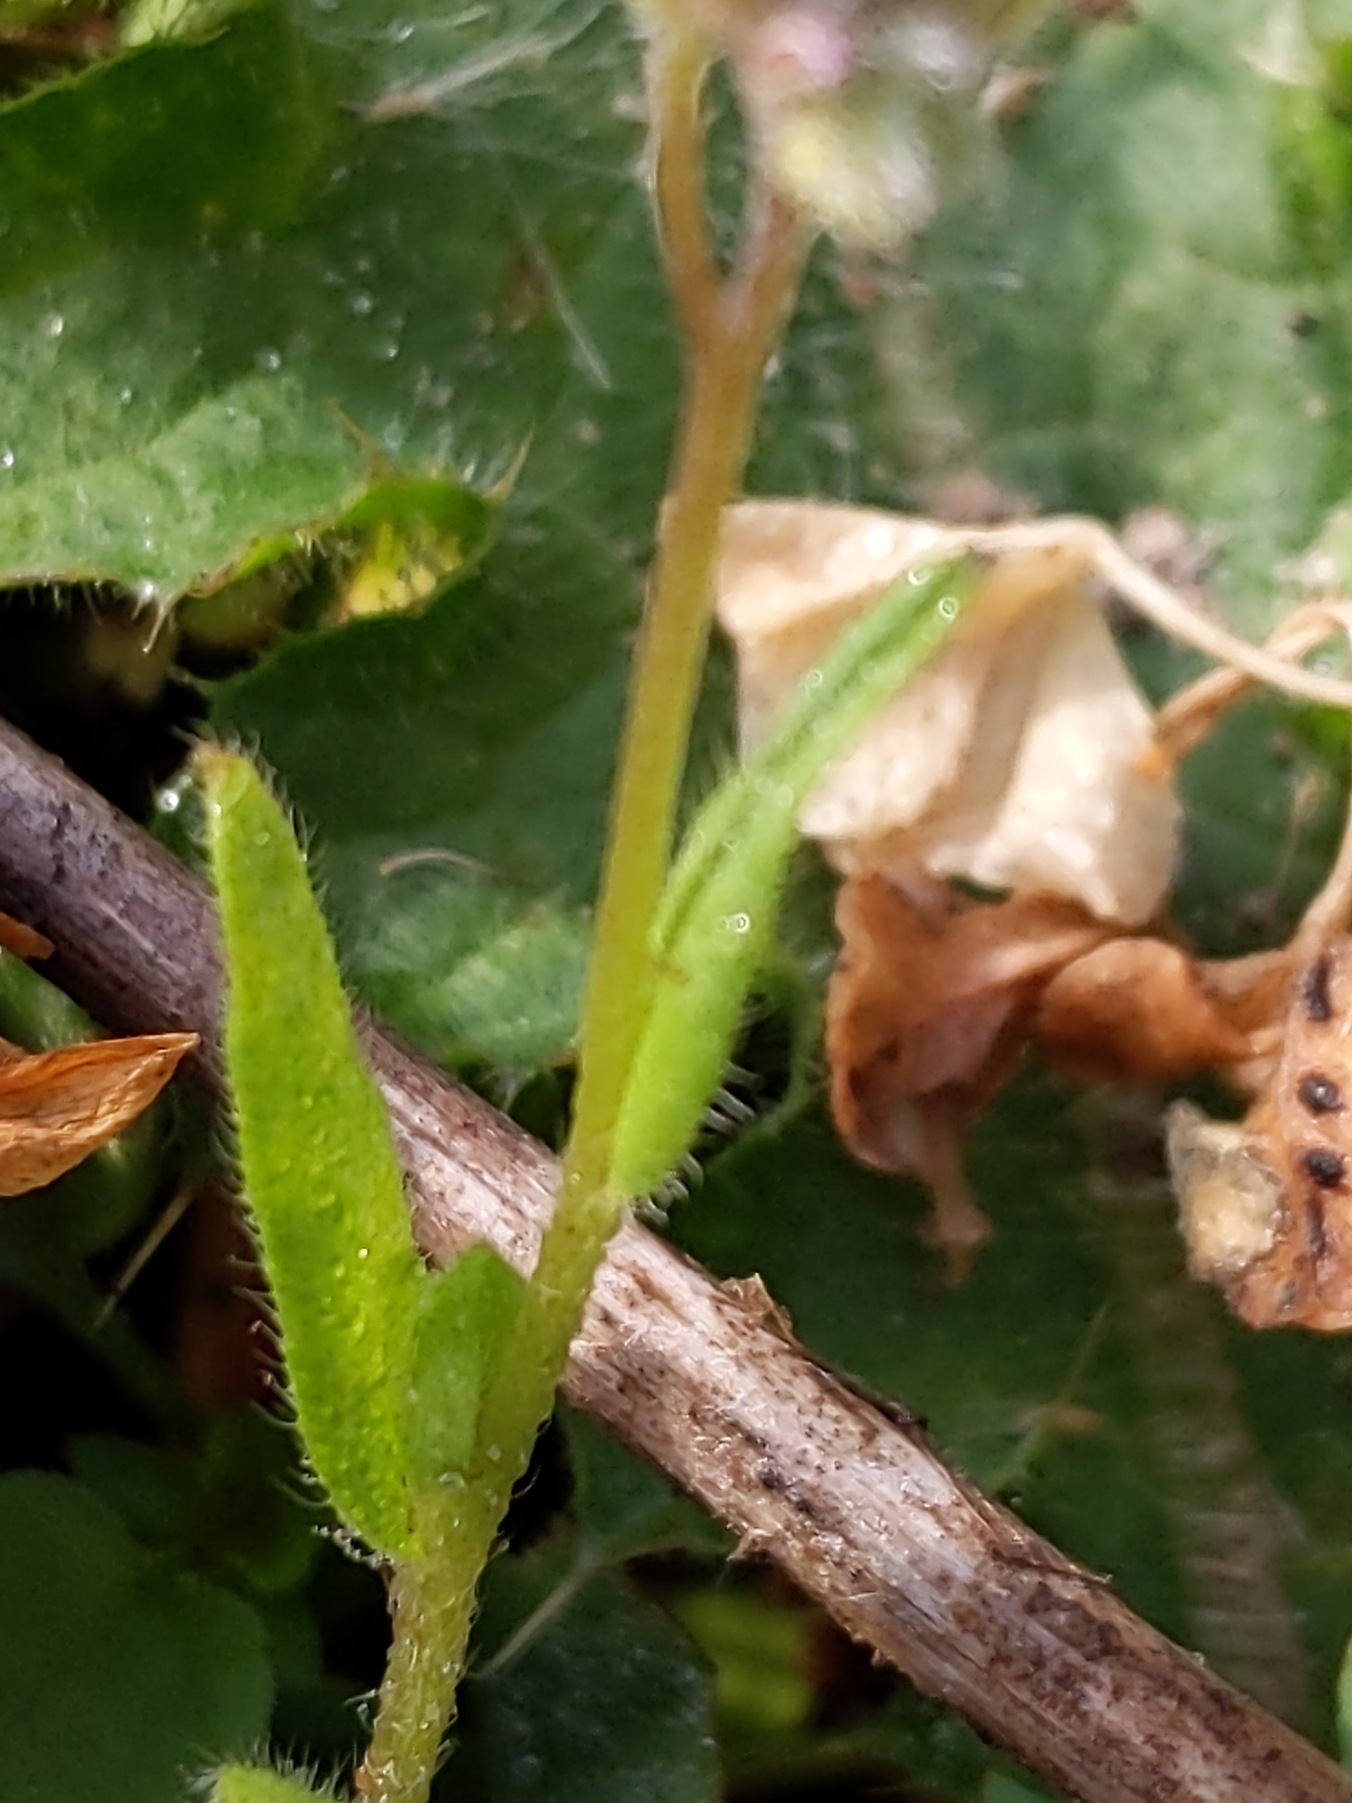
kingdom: Plantae
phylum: Tracheophyta
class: Magnoliopsida
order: Boraginales
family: Boraginaceae
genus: Myosotis
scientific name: Myosotis arvensis
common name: Mark-forglemmigej
